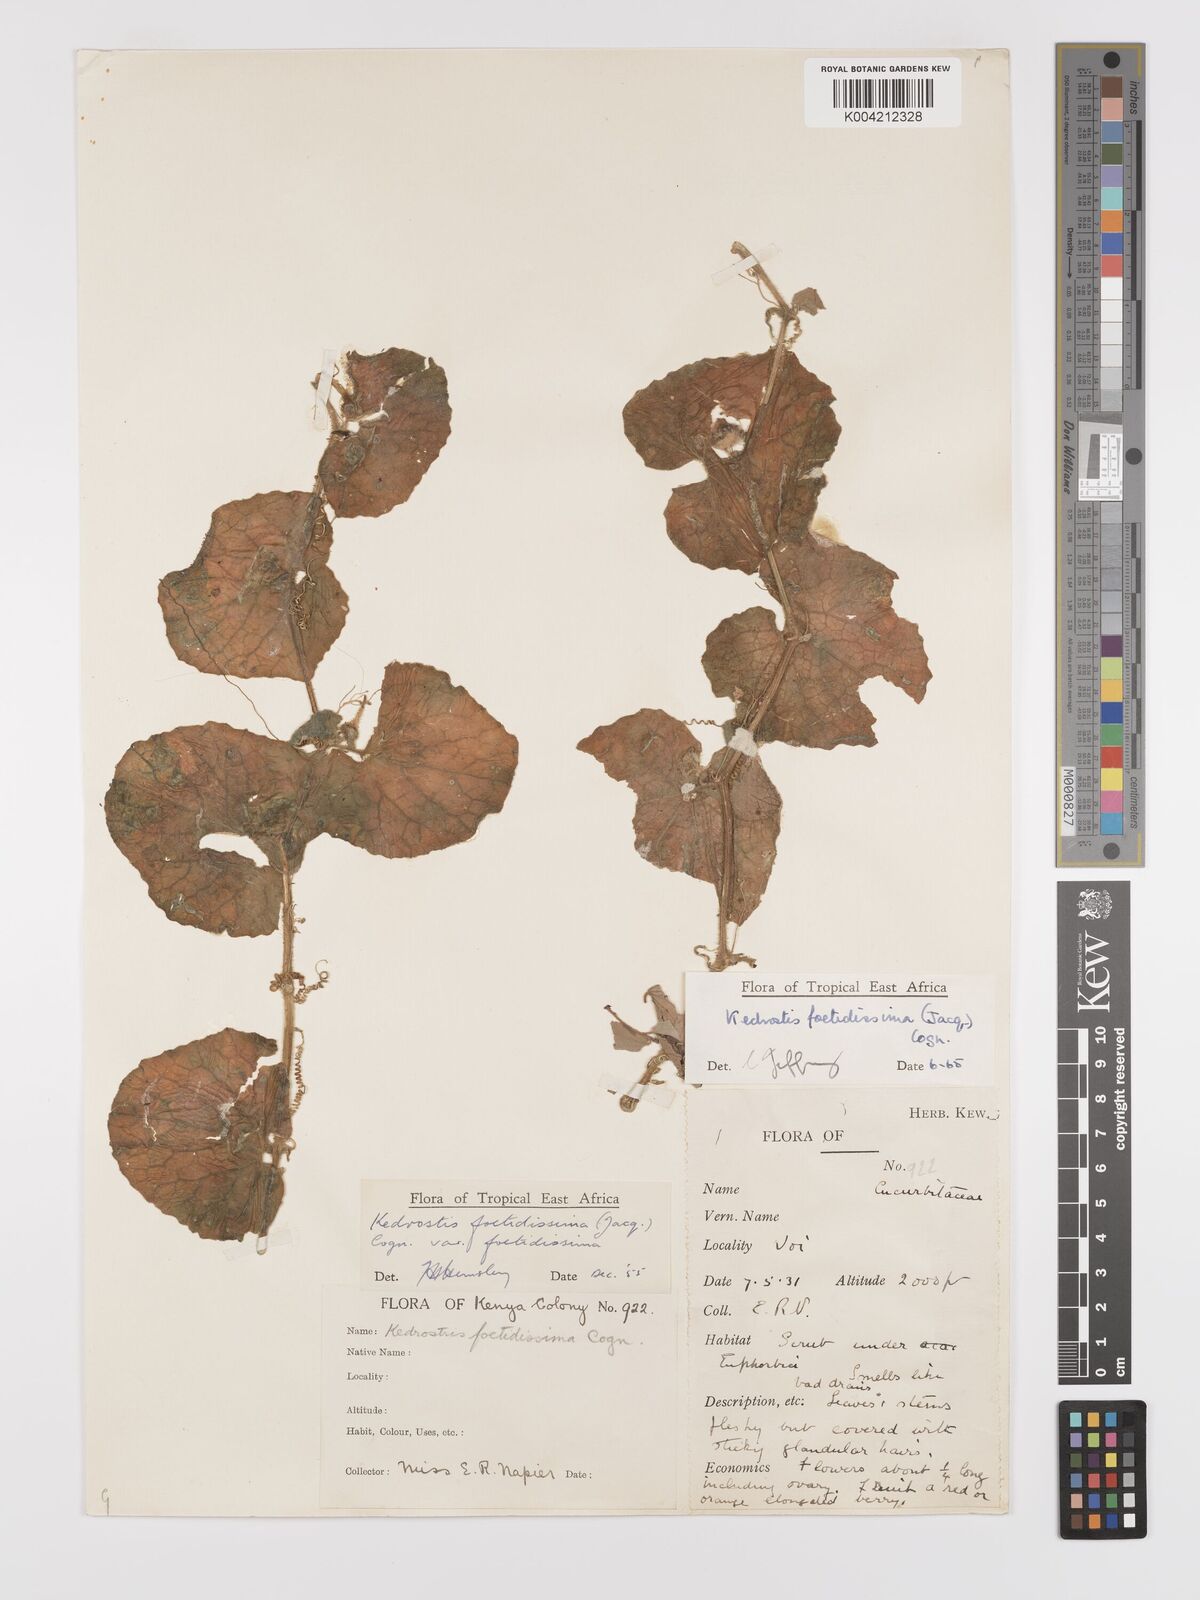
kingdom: Plantae
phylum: Tracheophyta
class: Magnoliopsida
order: Cucurbitales
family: Cucurbitaceae
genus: Kedrostis
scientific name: Kedrostis foetidissima
